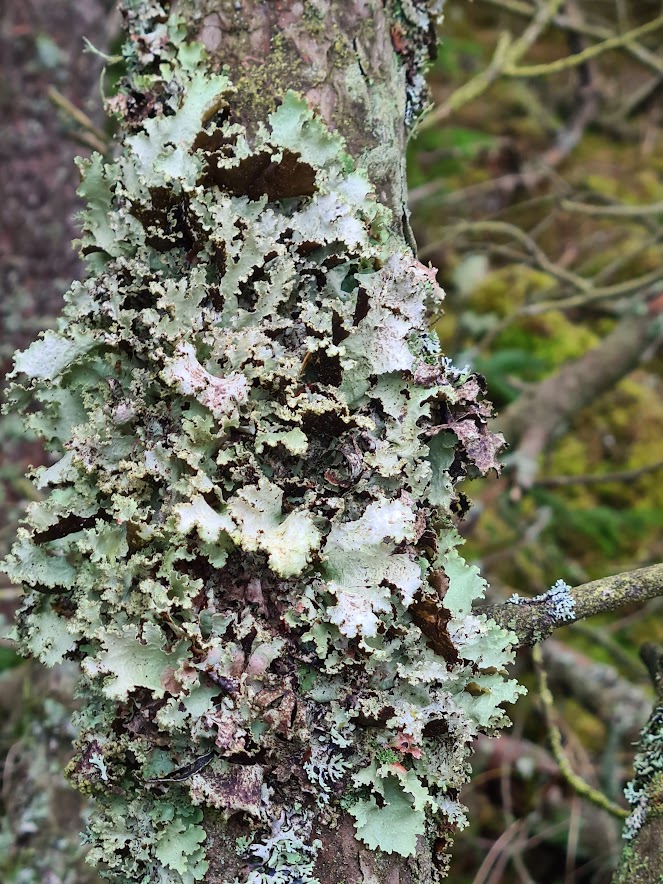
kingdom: Fungi
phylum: Ascomycota
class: Lecanoromycetes
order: Lecanorales
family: Parmeliaceae
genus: Platismatia
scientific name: Platismatia glauca
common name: blågrå papirlav
